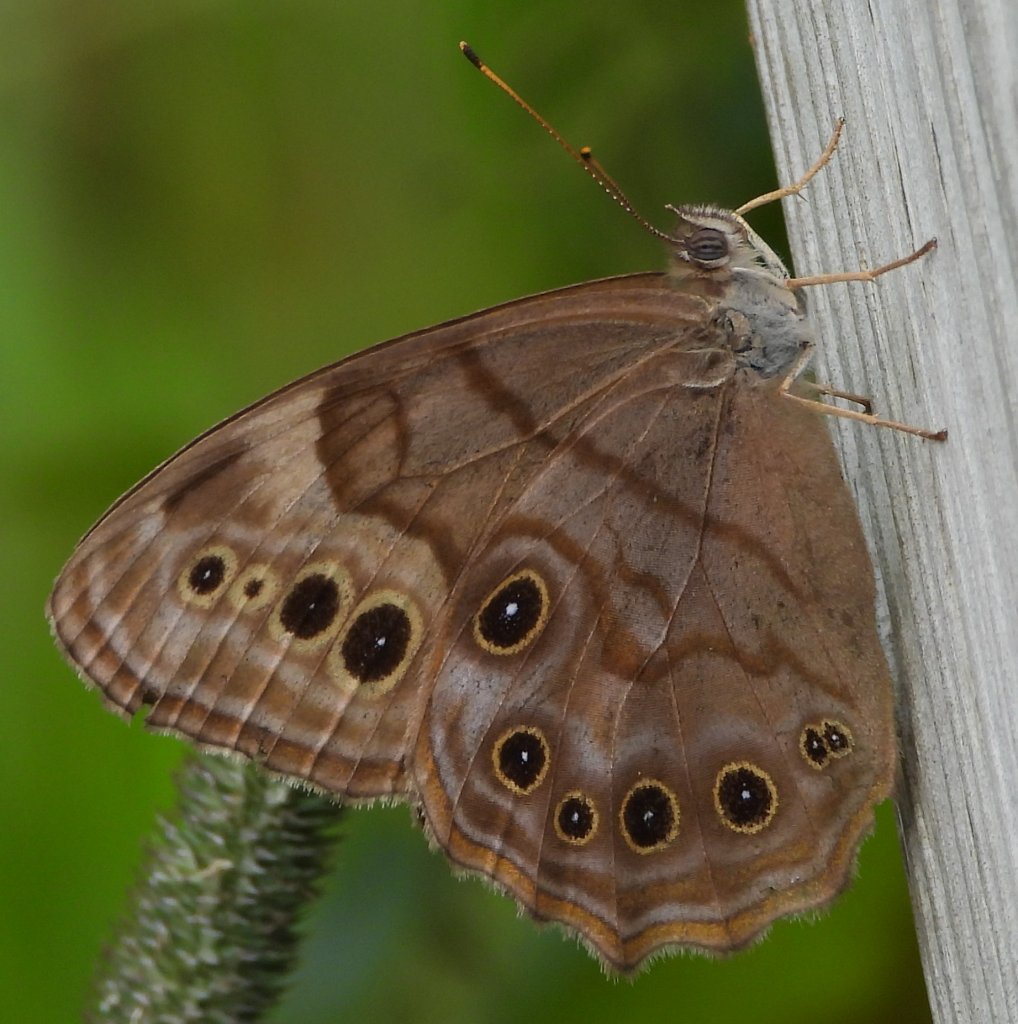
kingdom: Animalia
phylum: Arthropoda
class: Insecta
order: Lepidoptera
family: Nymphalidae
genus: Lethe
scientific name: Lethe anthedon
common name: Northern Pearly-Eye
